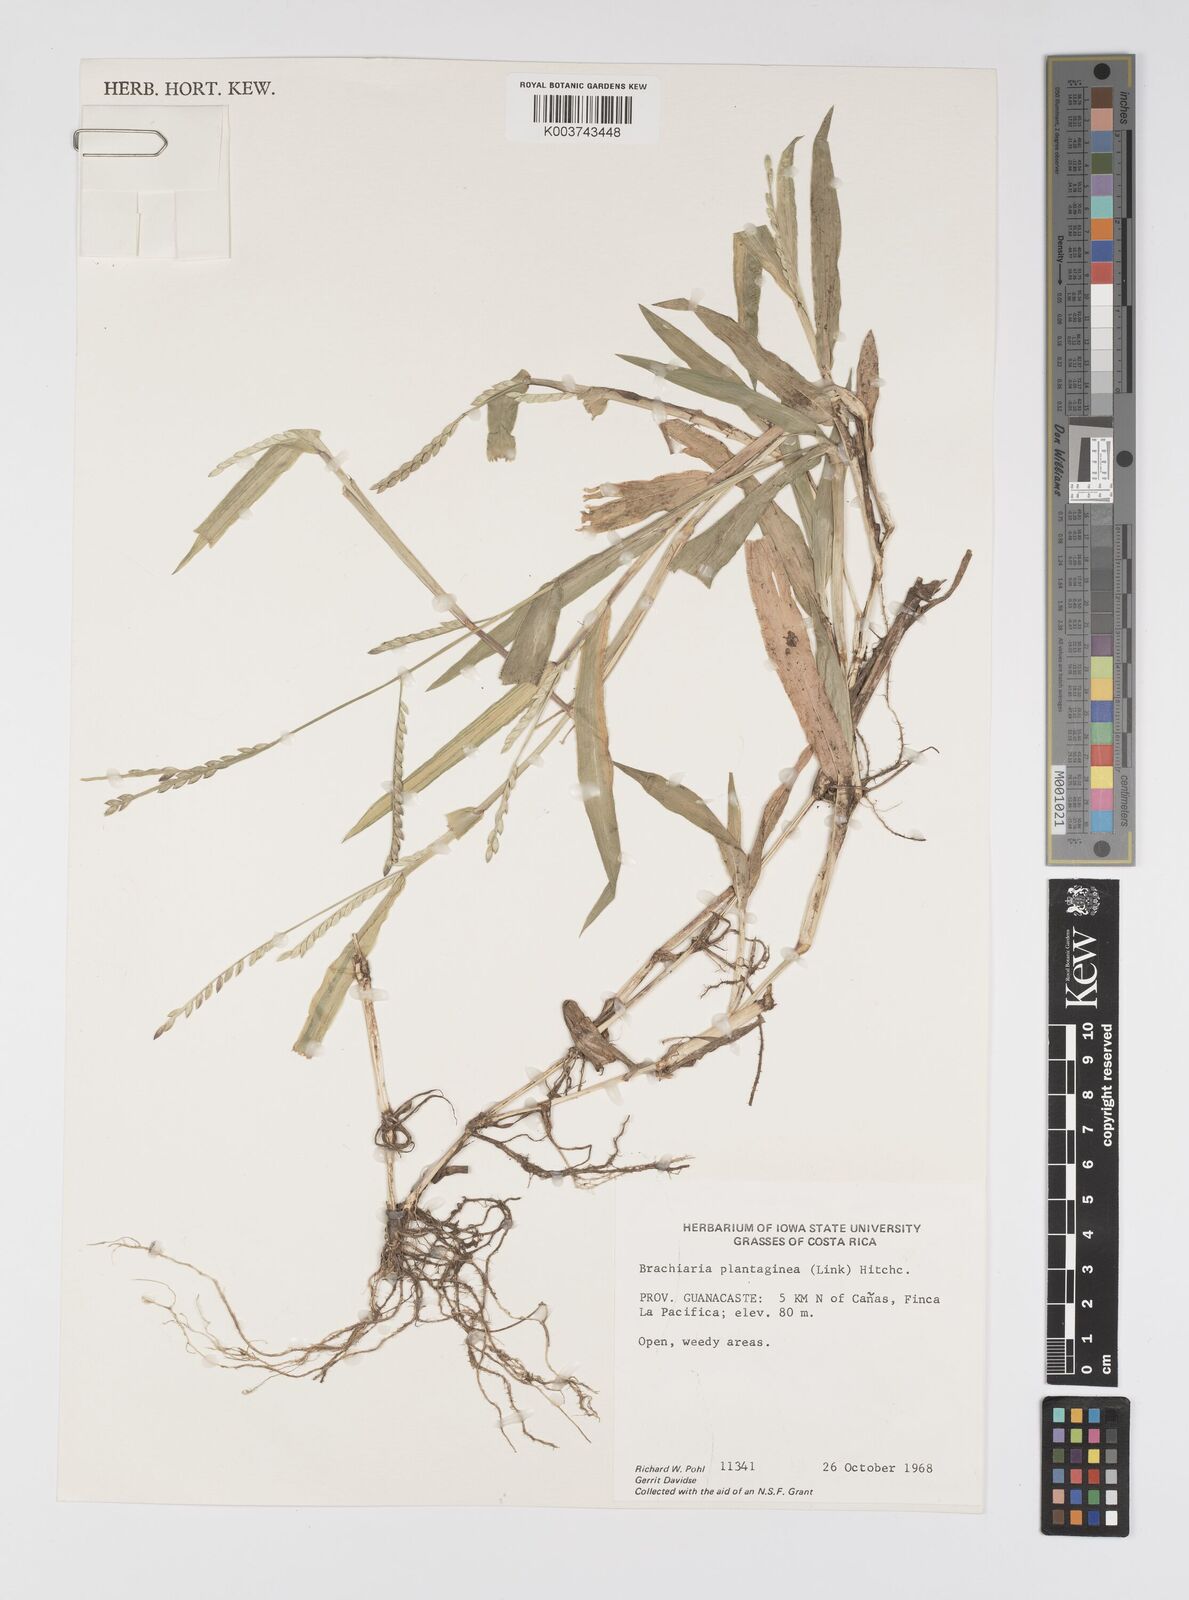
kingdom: Plantae
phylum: Tracheophyta
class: Liliopsida
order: Poales
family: Poaceae
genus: Urochloa
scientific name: Urochloa plantaginea
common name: Plantain signalgrass
